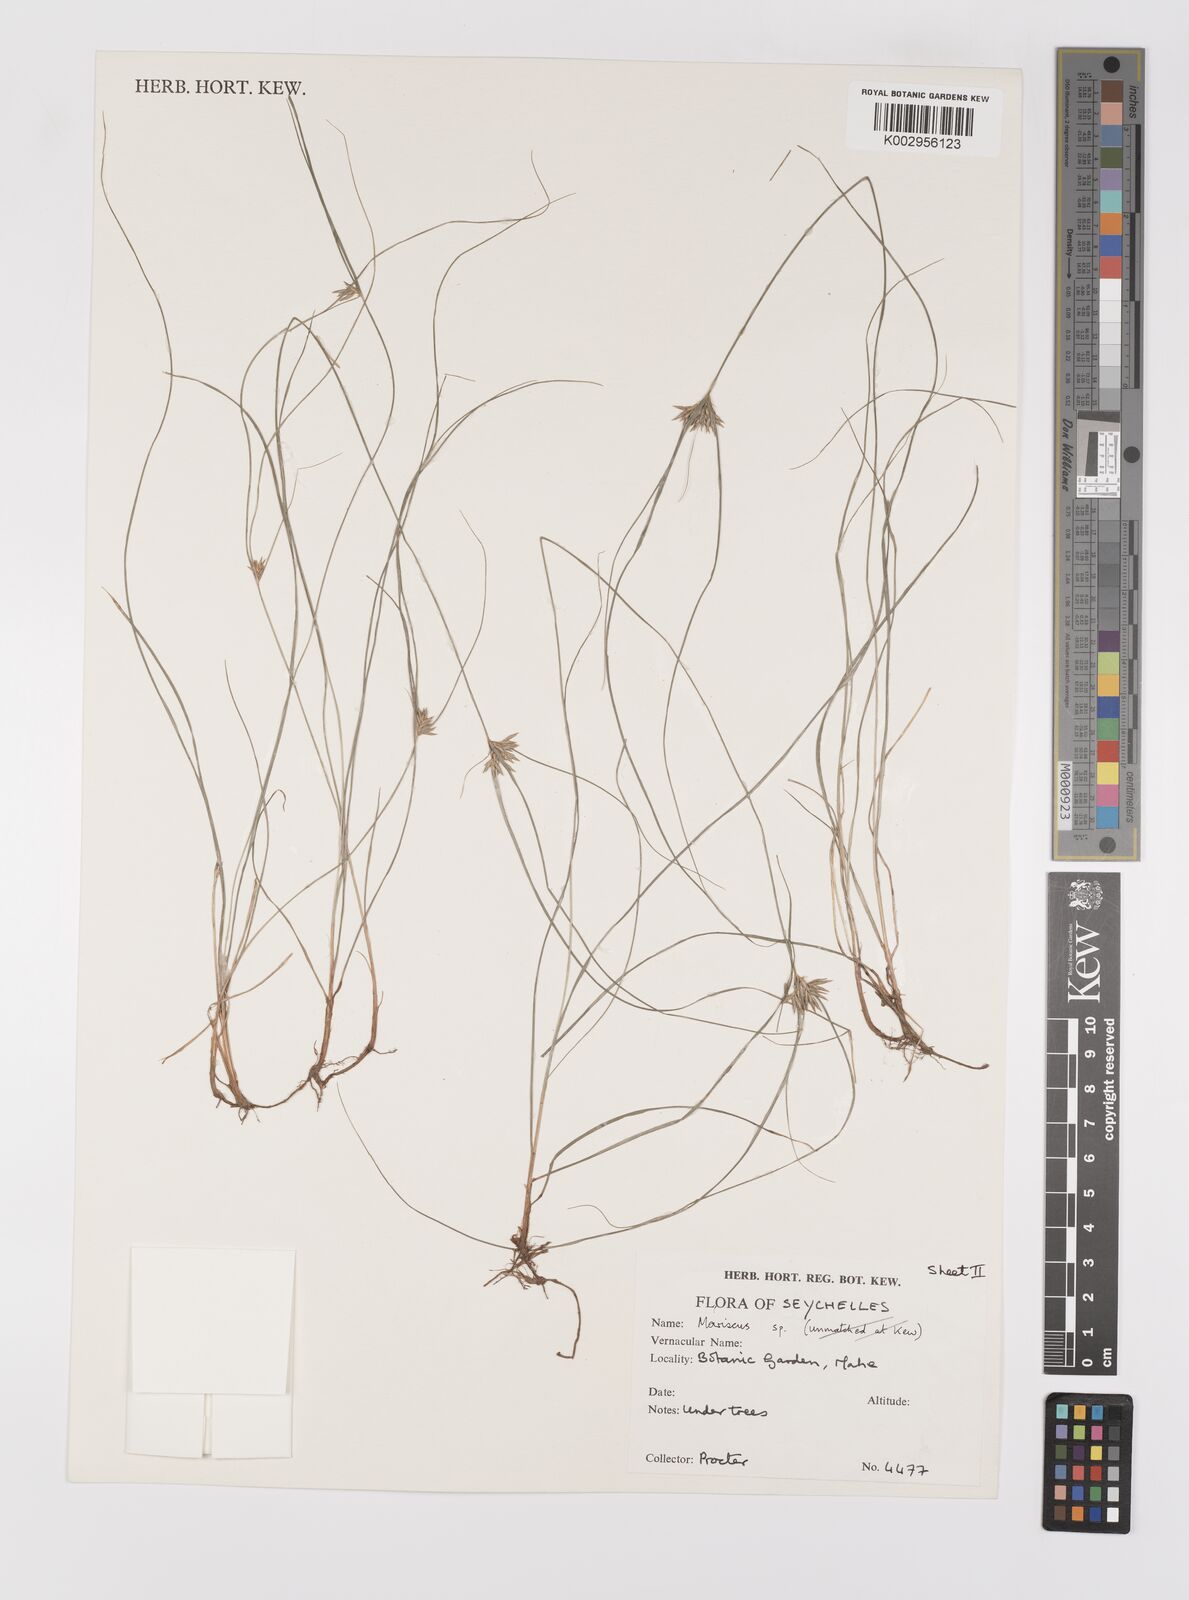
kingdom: Plantae
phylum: Tracheophyta
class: Liliopsida
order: Poales
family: Cyperaceae
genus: Cyperus
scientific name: Cyperus tenuifolius
